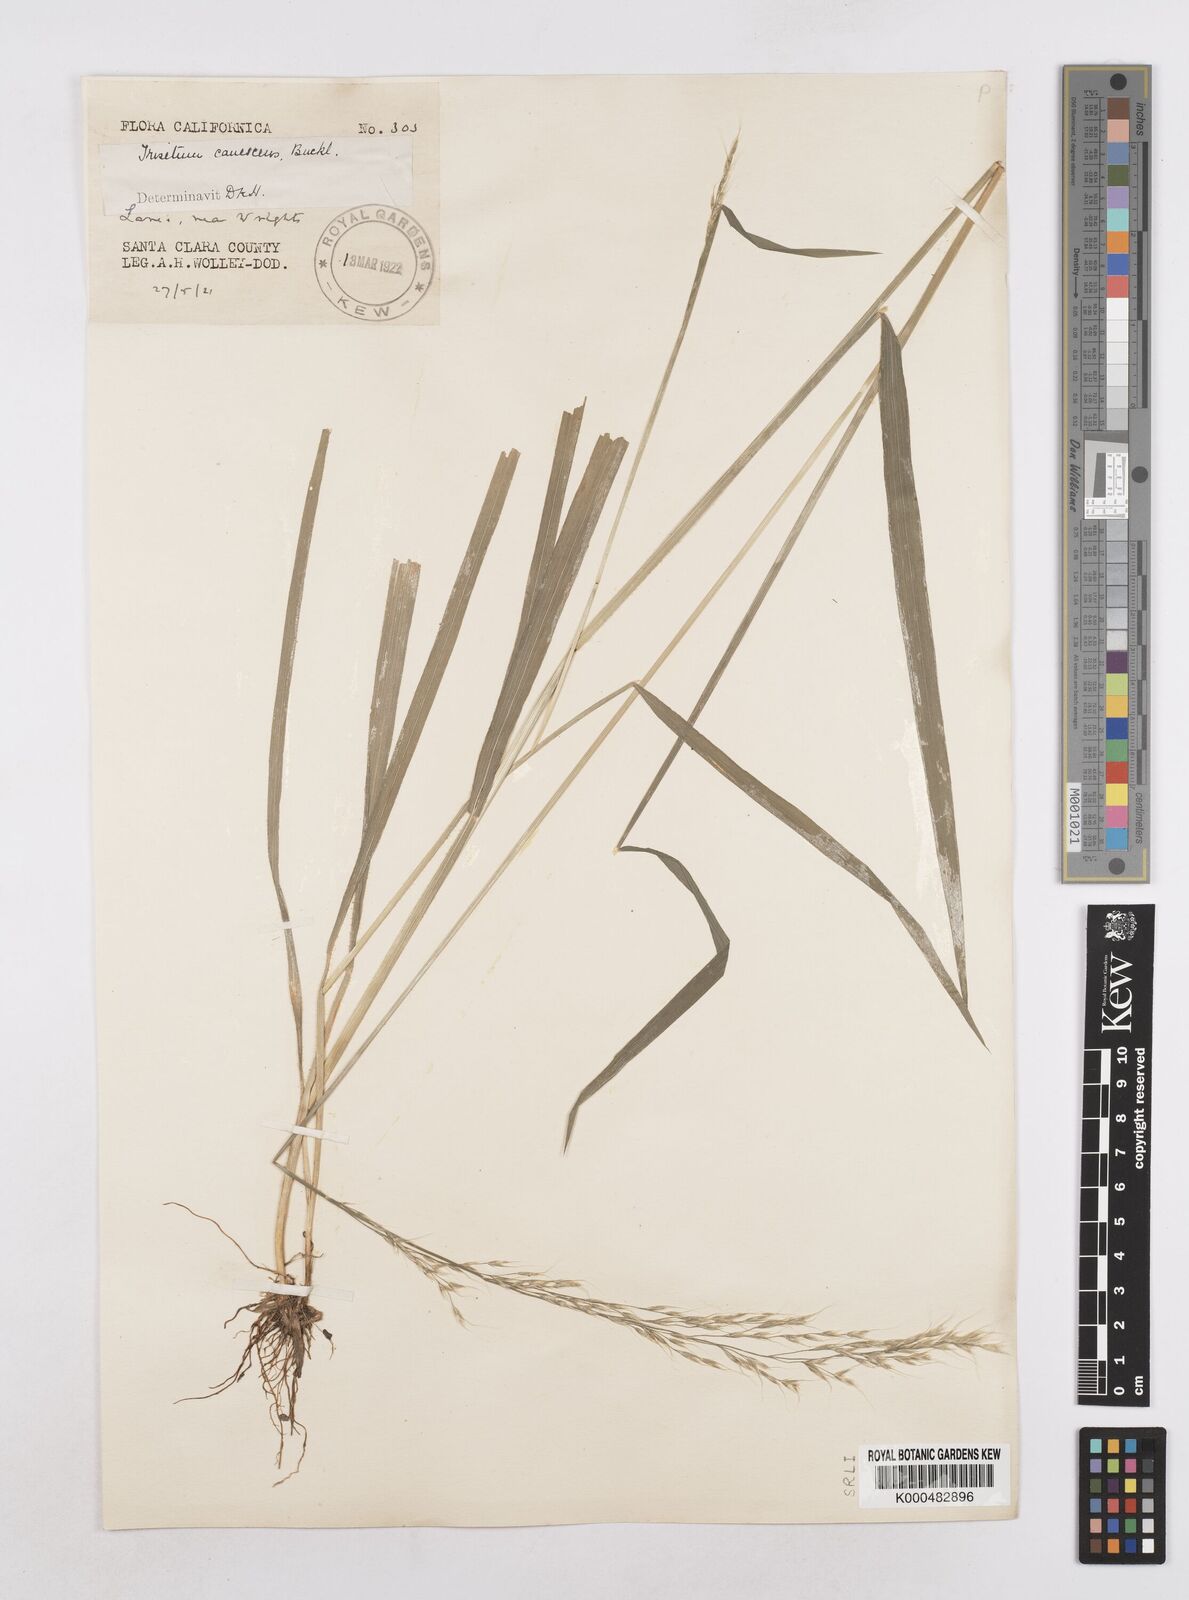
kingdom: Plantae
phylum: Tracheophyta
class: Liliopsida
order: Poales
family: Poaceae
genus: Graphephorum
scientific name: Graphephorum canescens
